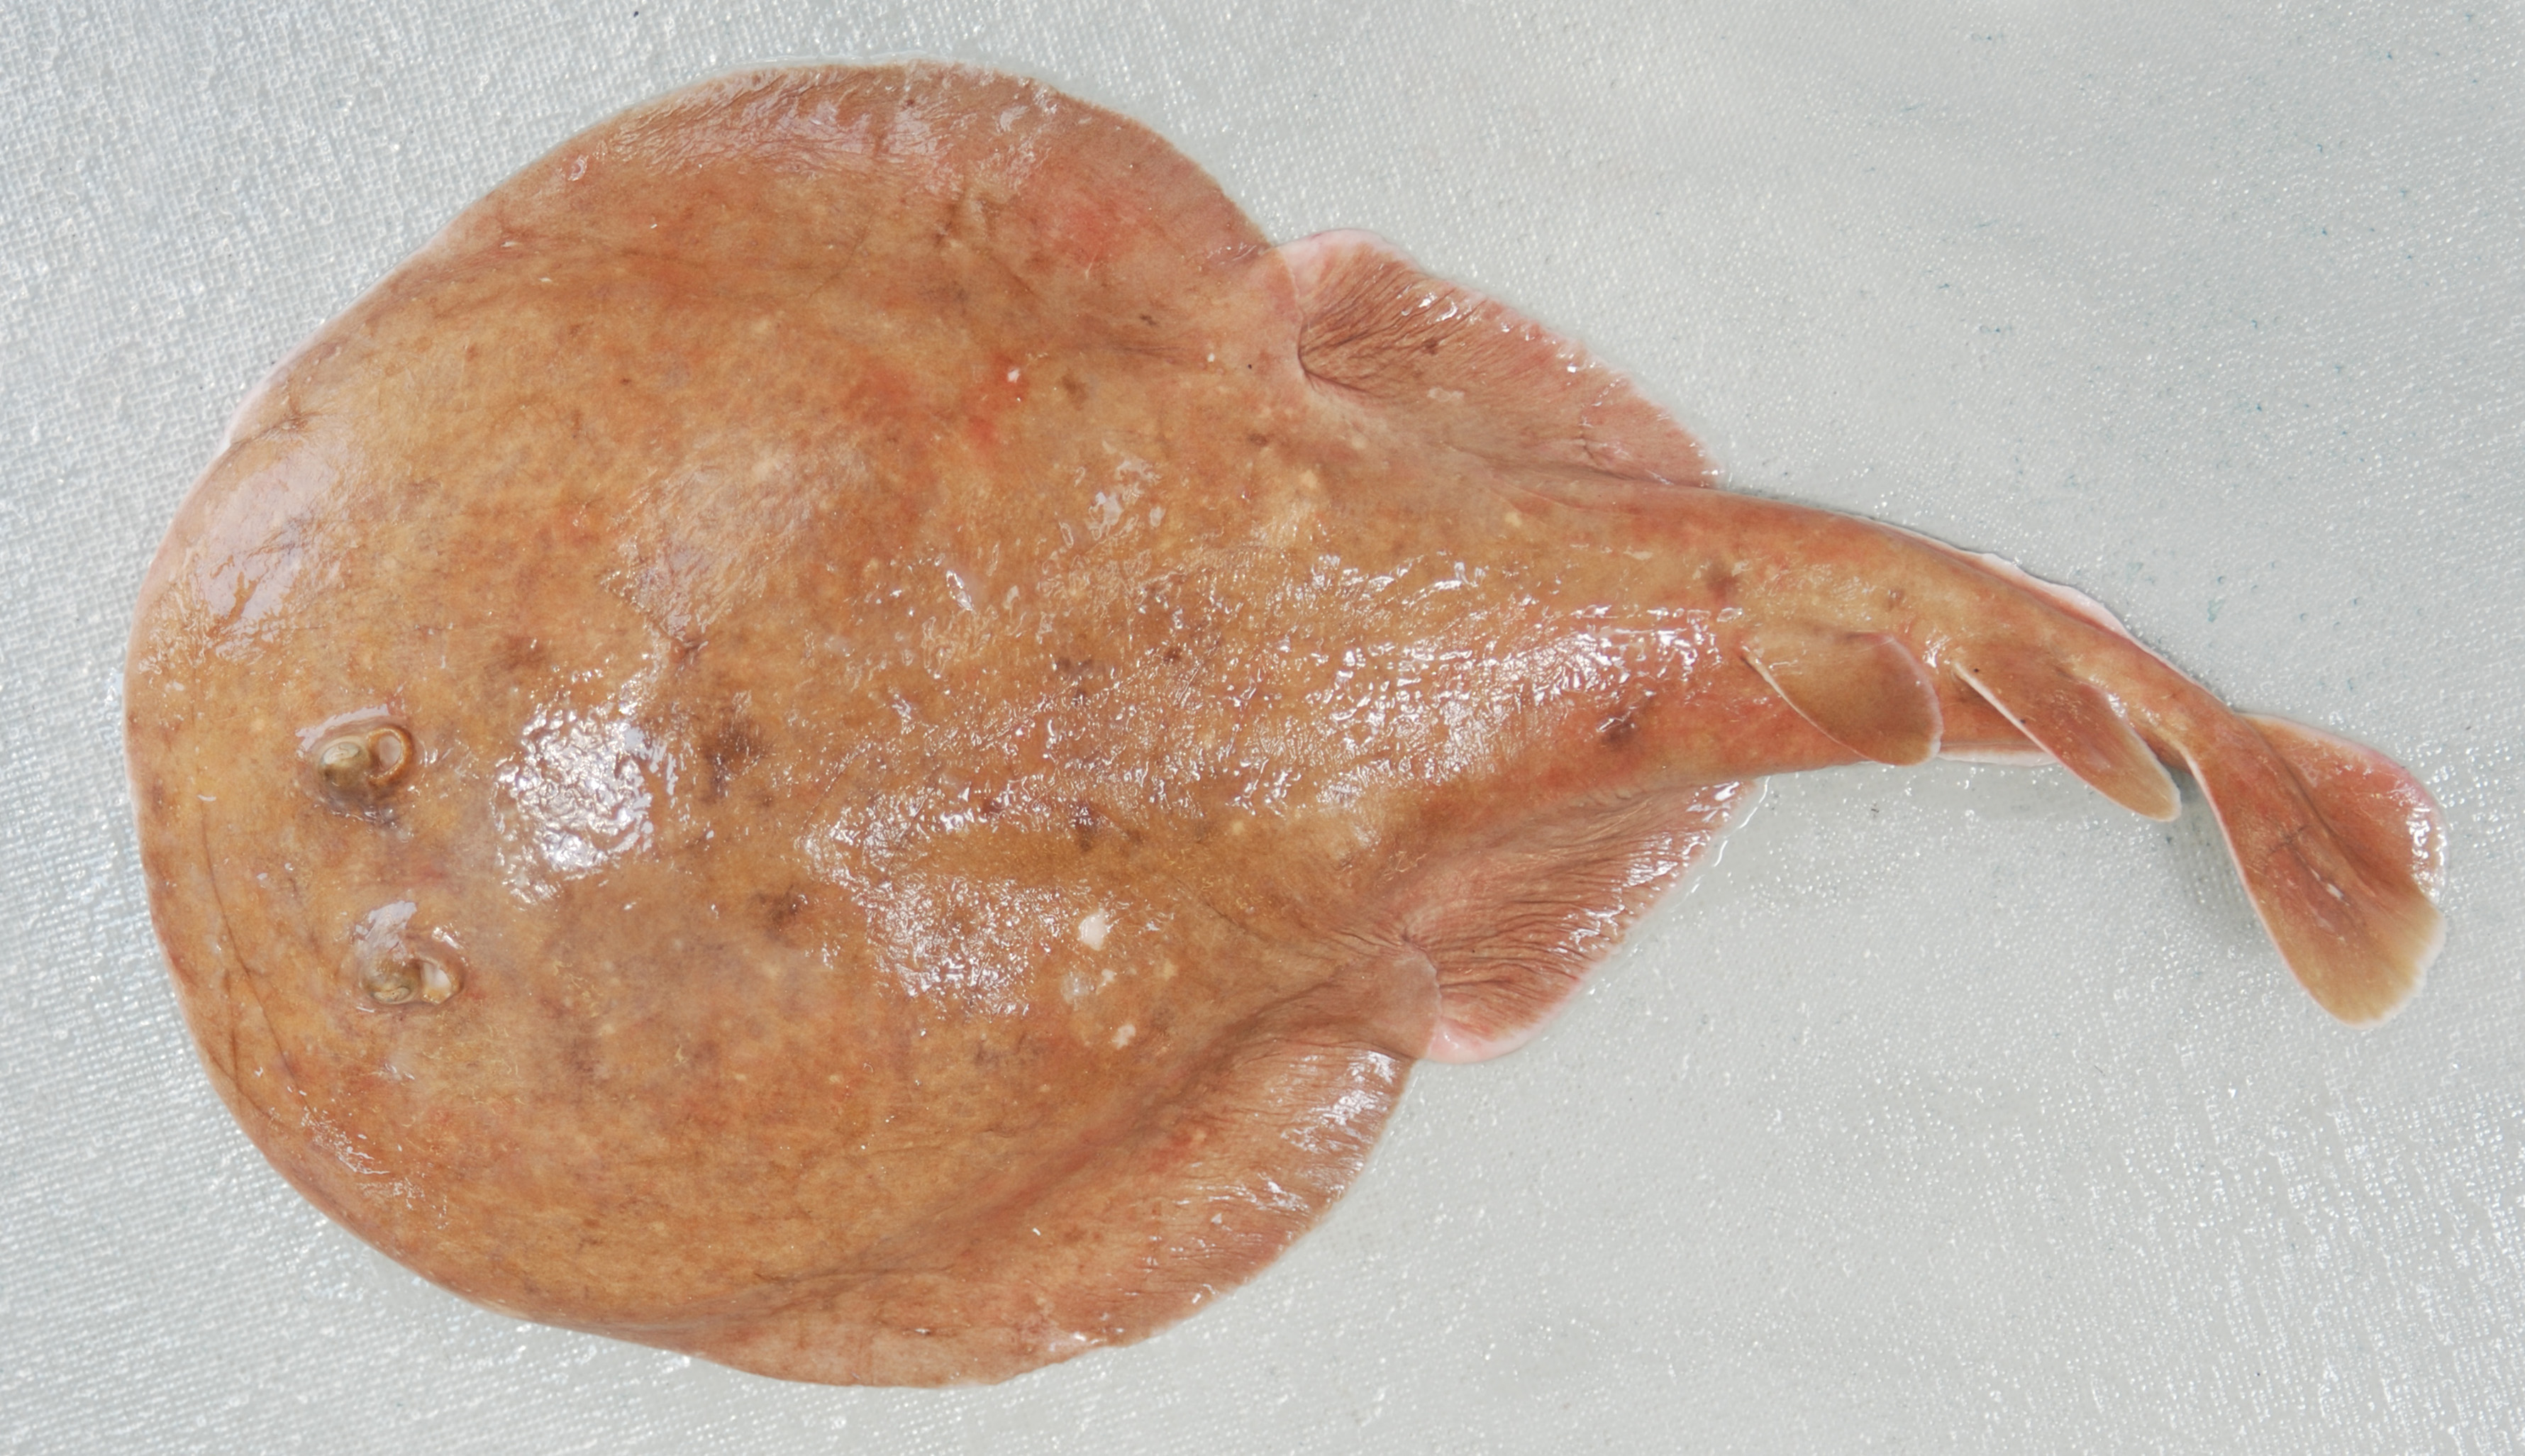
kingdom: Animalia
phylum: Chordata
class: Elasmobranchii
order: Torpediniformes
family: Narkidae
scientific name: Narkidae
